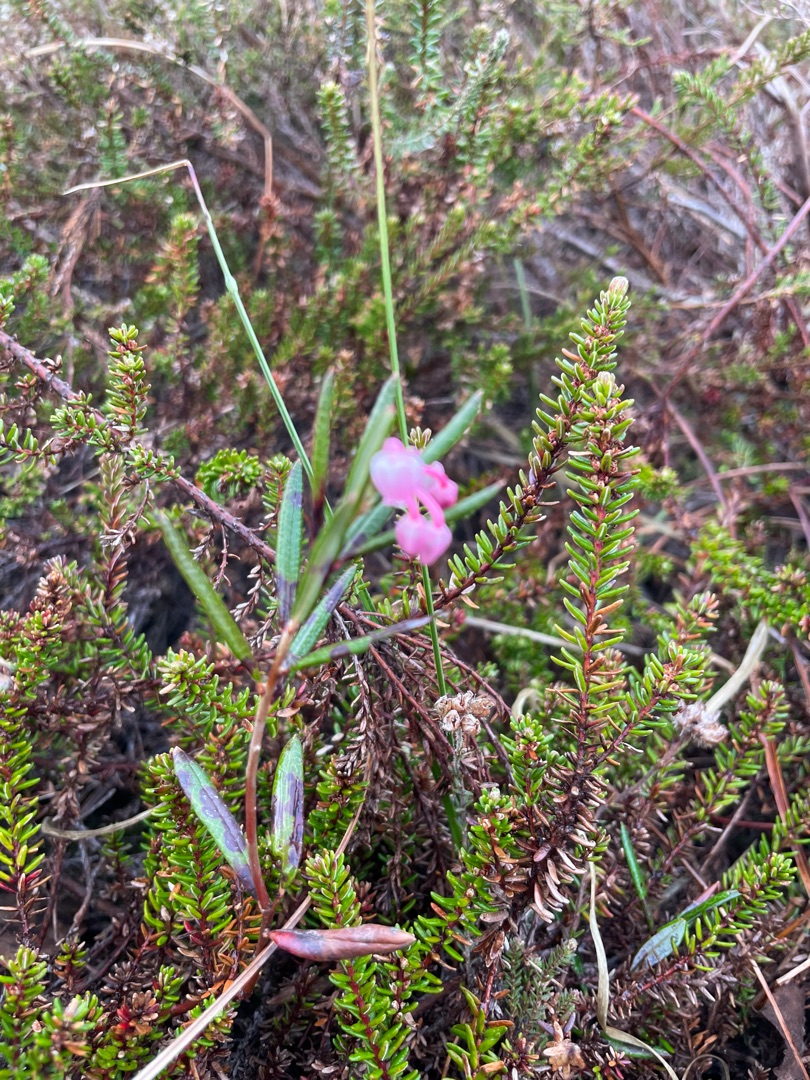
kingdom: Plantae
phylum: Tracheophyta
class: Magnoliopsida
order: Ericales
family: Ericaceae
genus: Andromeda
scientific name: Andromeda polifolia
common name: Rosmarinlyng
